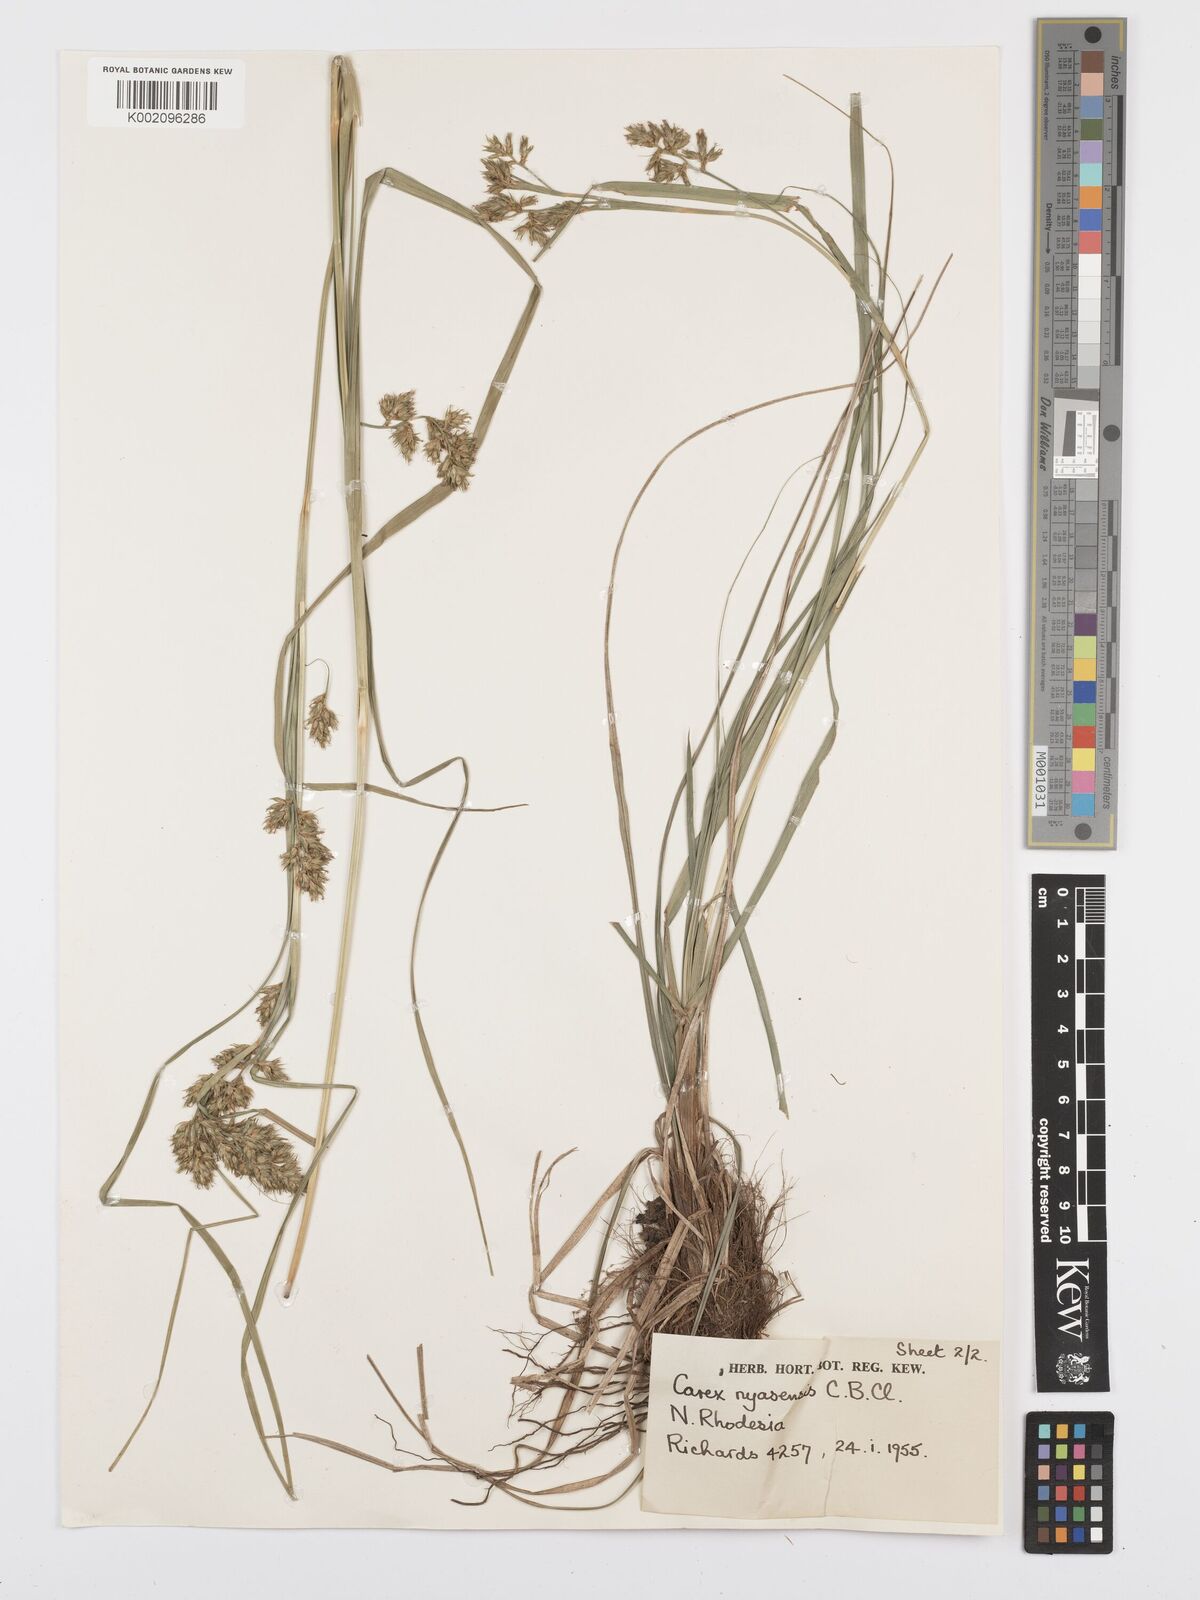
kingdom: Plantae
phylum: Tracheophyta
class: Liliopsida
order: Poales
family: Cyperaceae
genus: Carex
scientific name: Carex spicatopaniculata
